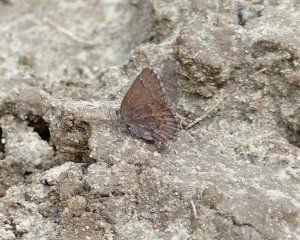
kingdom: Animalia
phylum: Arthropoda
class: Insecta
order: Lepidoptera
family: Lycaenidae
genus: Incisalia
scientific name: Incisalia eryphon
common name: Western Pine Elfin
